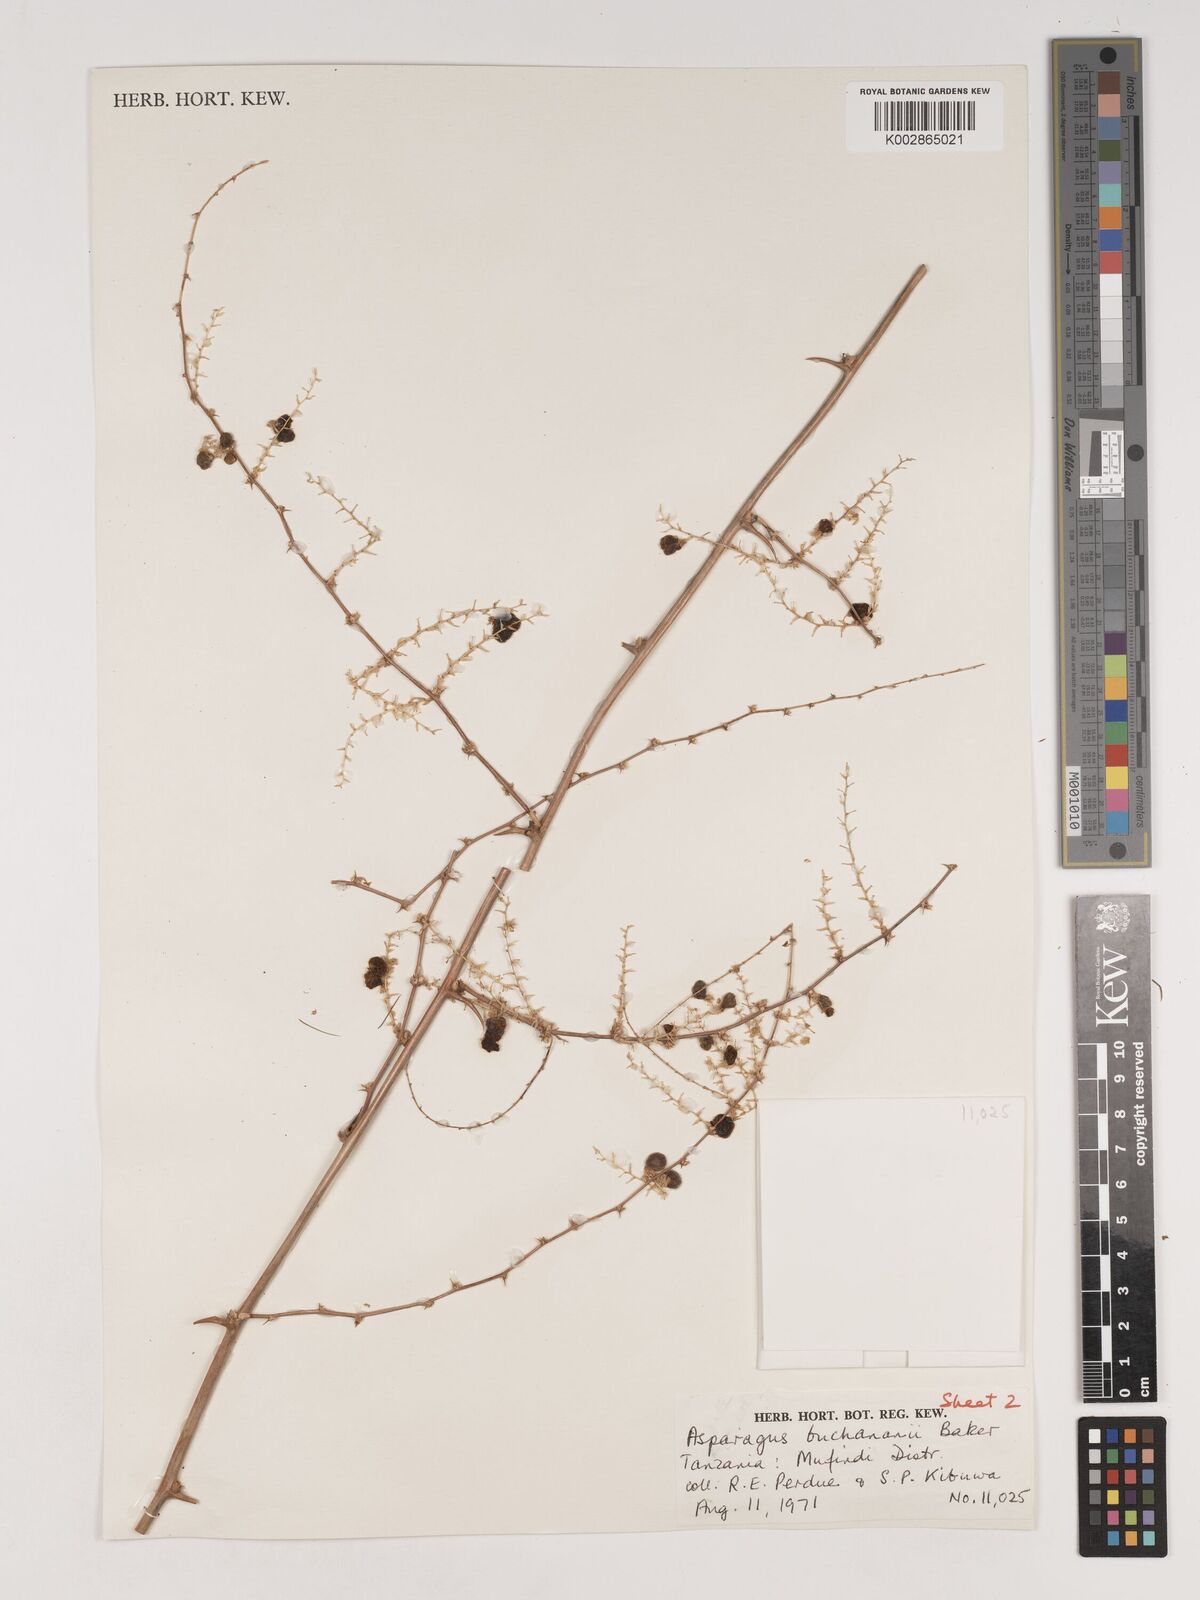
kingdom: Plantae
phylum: Tracheophyta
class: Liliopsida
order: Asparagales
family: Asparagaceae
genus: Asparagus
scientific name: Asparagus buchananii
